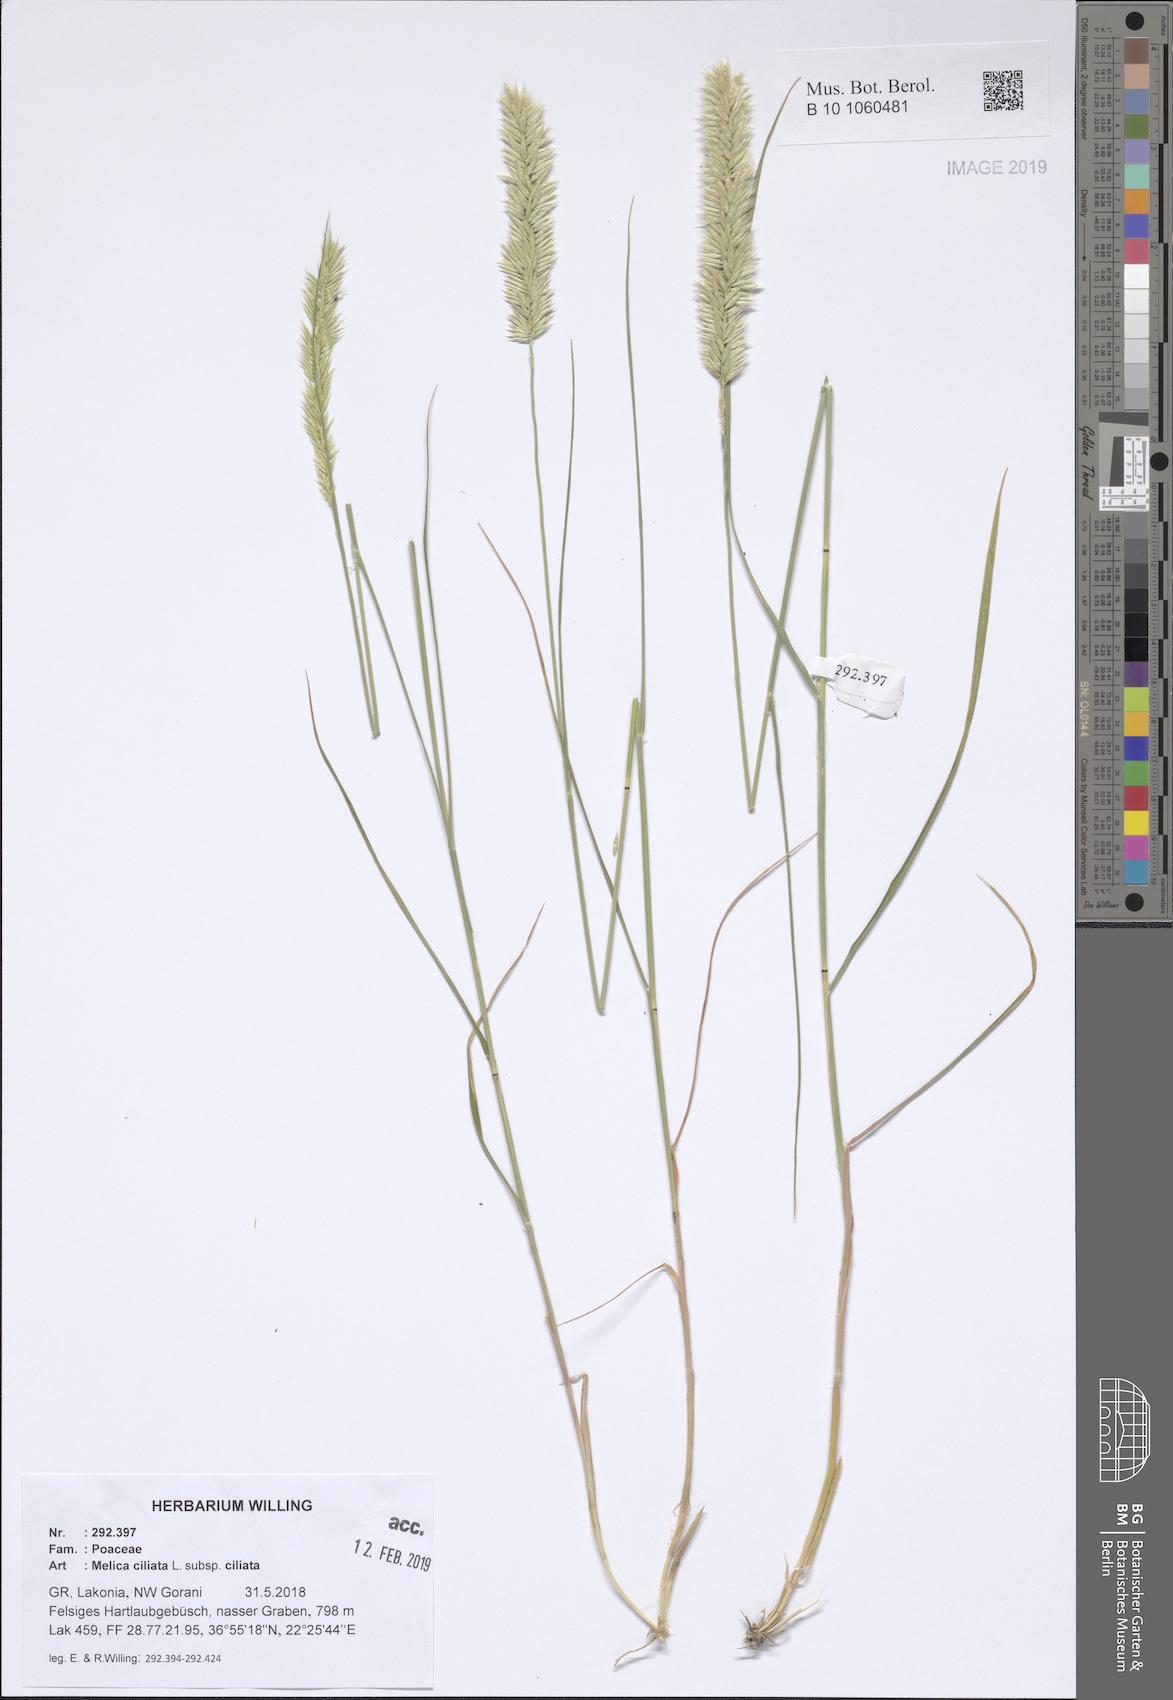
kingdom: Plantae
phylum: Tracheophyta
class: Liliopsida
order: Poales
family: Poaceae
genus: Melica
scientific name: Melica ciliata
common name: Hairy melicgrass
